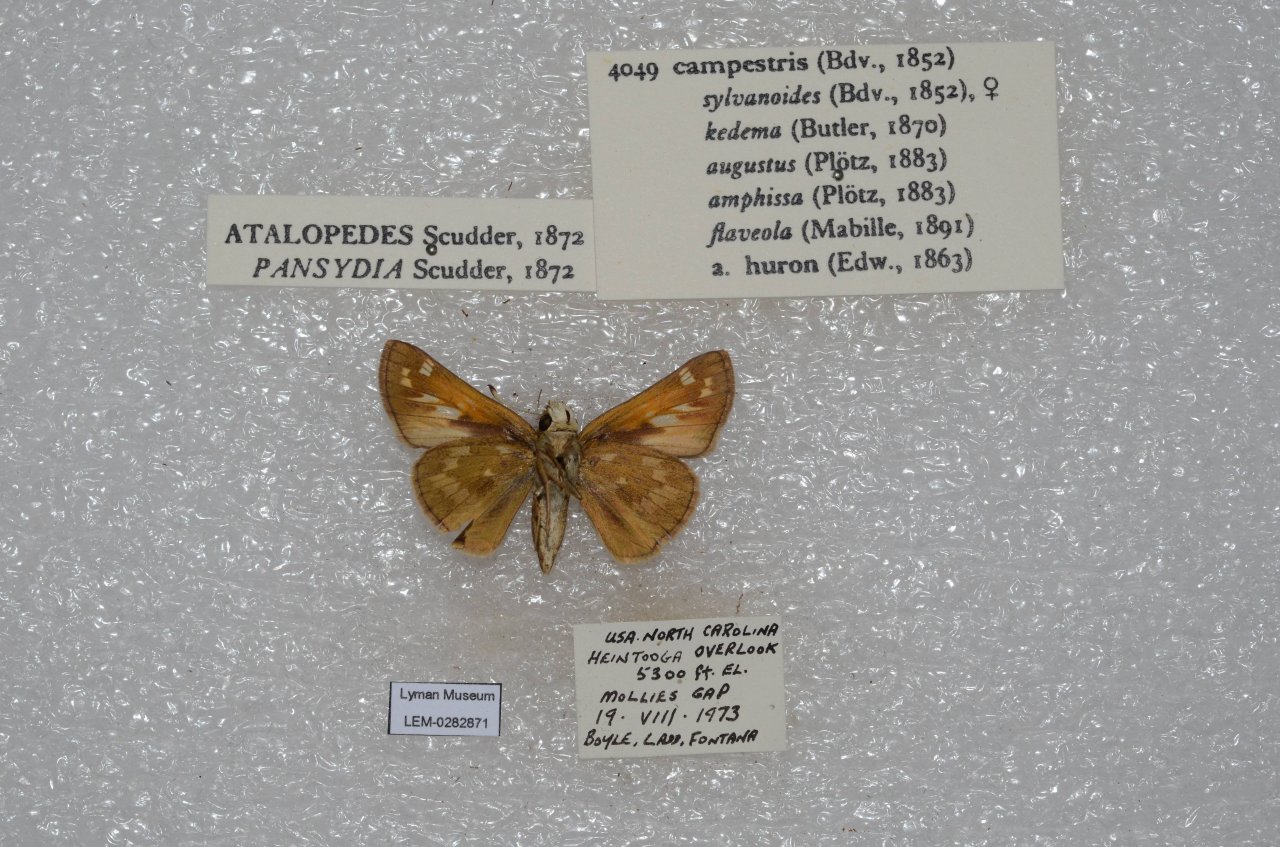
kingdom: Animalia
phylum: Arthropoda
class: Insecta
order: Lepidoptera
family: Hesperiidae
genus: Atalopedes
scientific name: Atalopedes campestris
